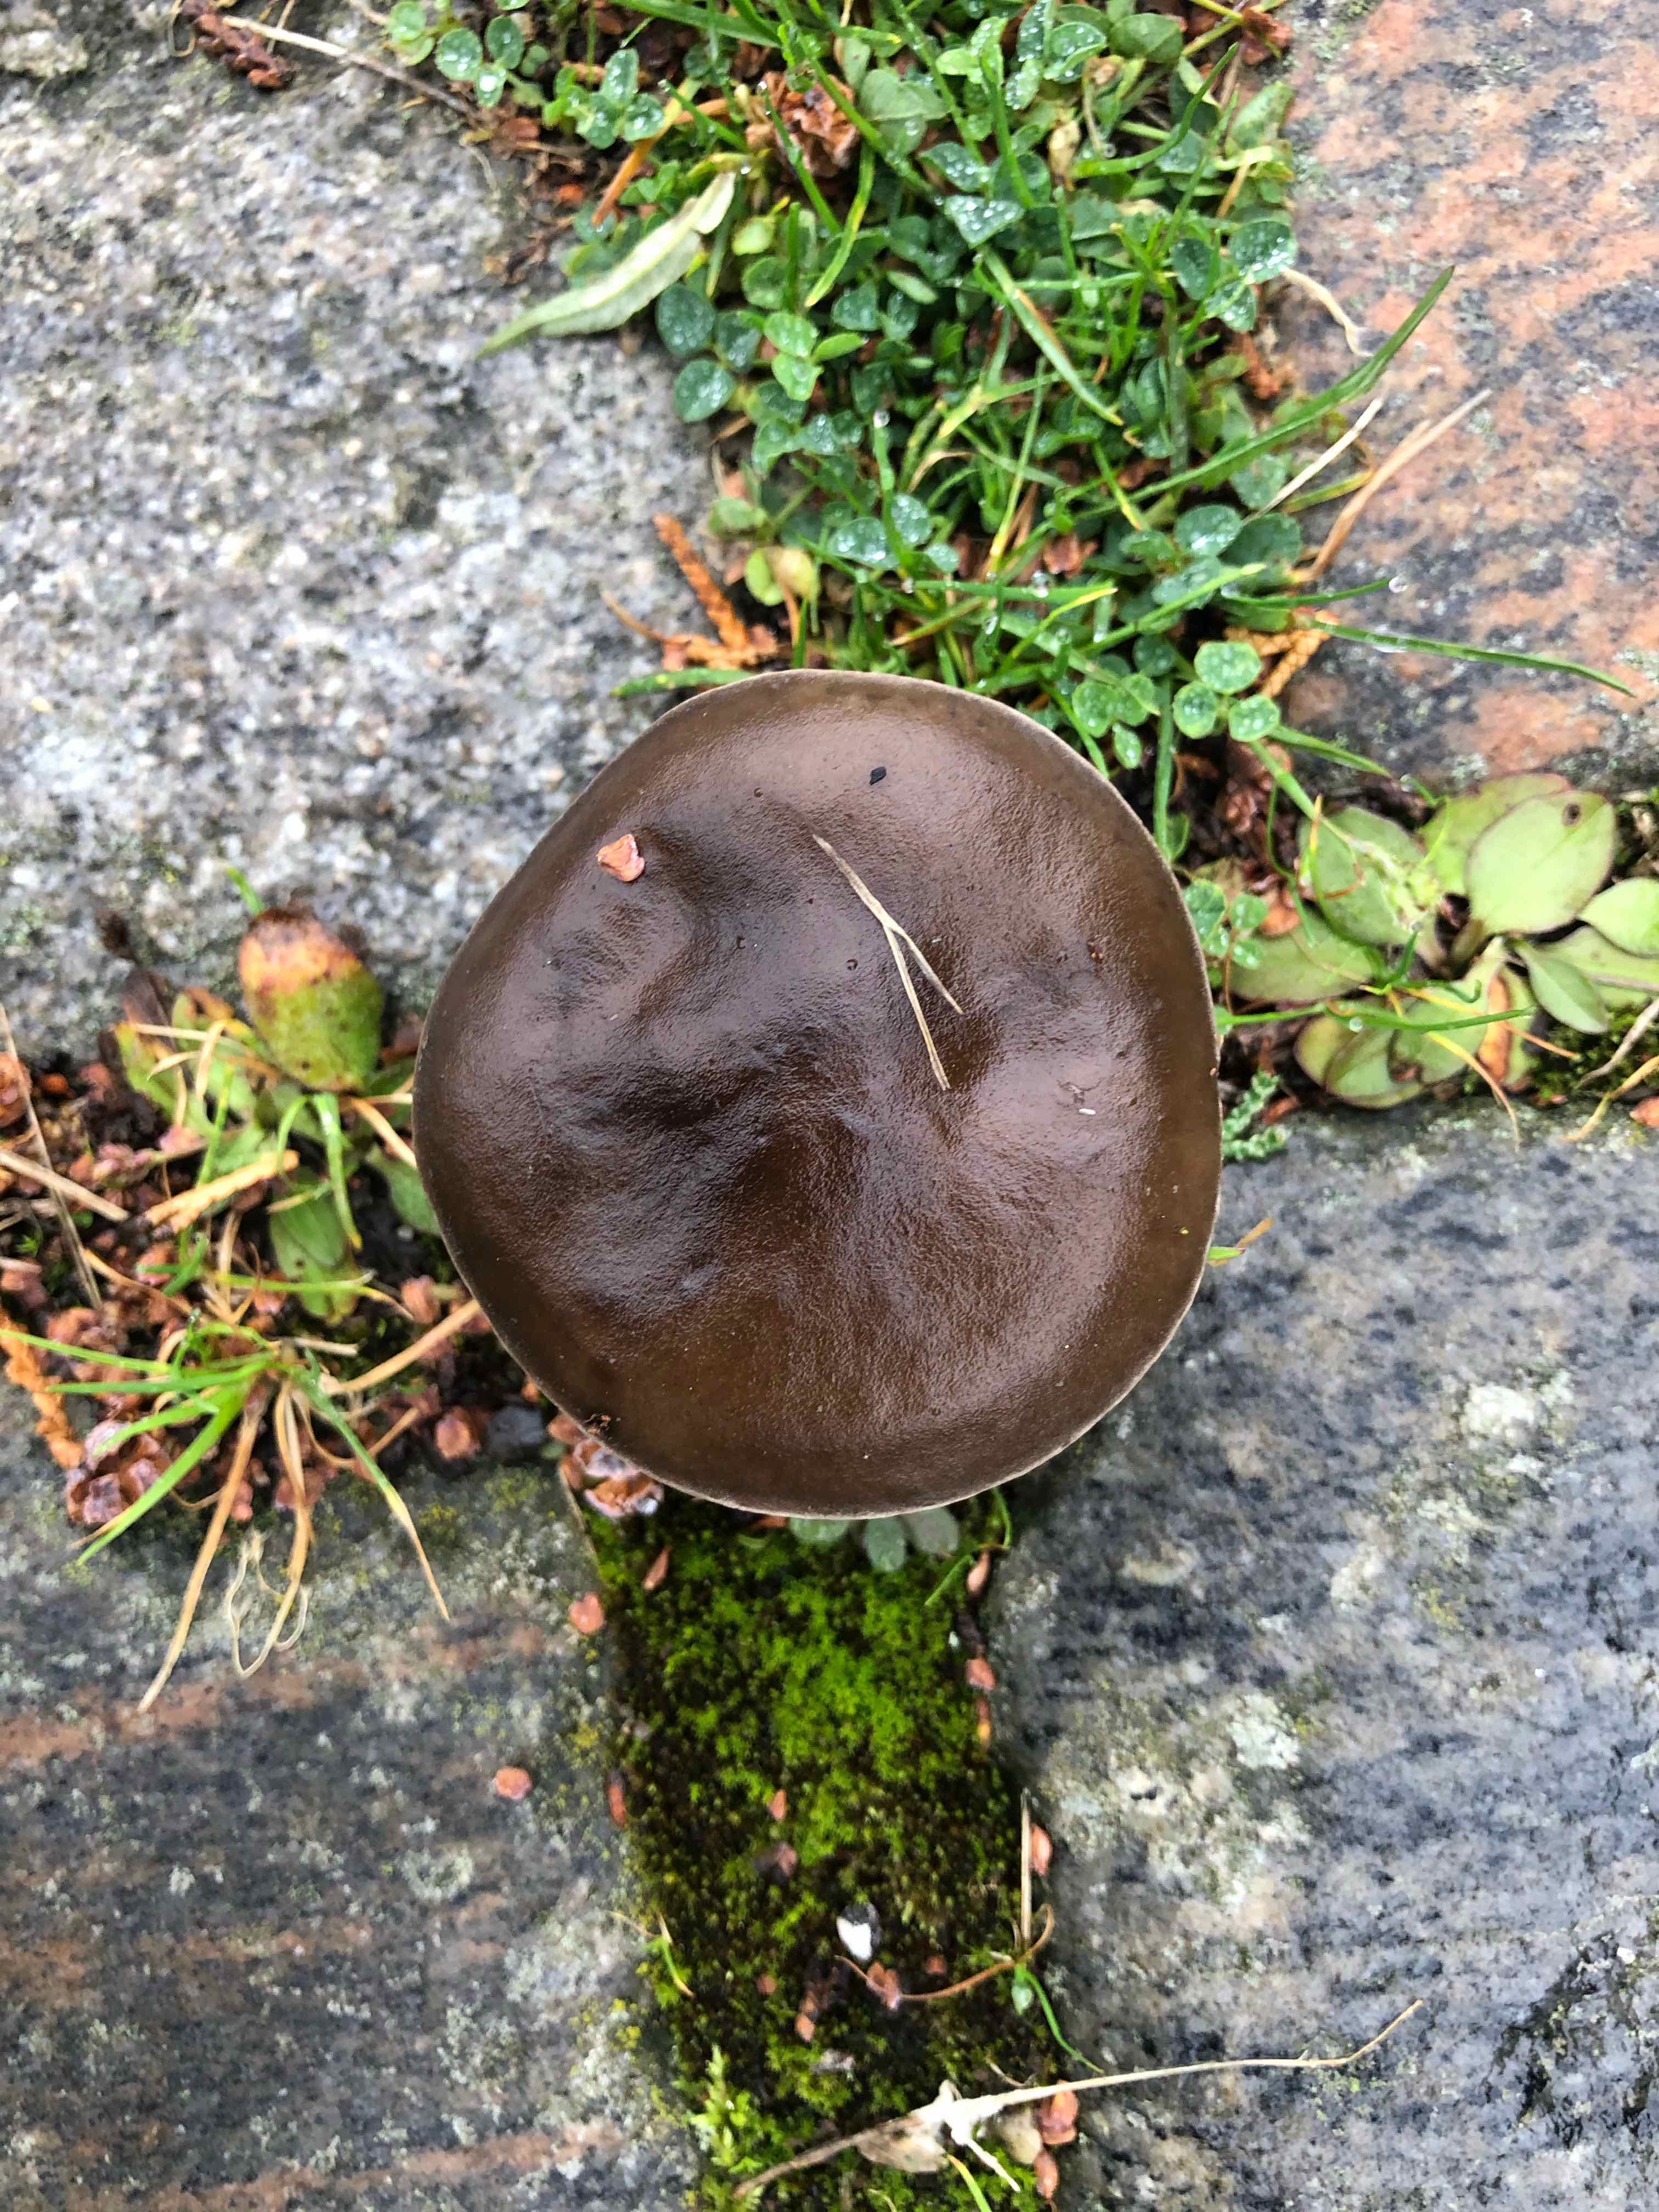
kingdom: Fungi
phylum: Basidiomycota
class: Agaricomycetes
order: Agaricales
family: Tricholomataceae
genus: Melanoleuca
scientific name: Melanoleuca
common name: munkehat
